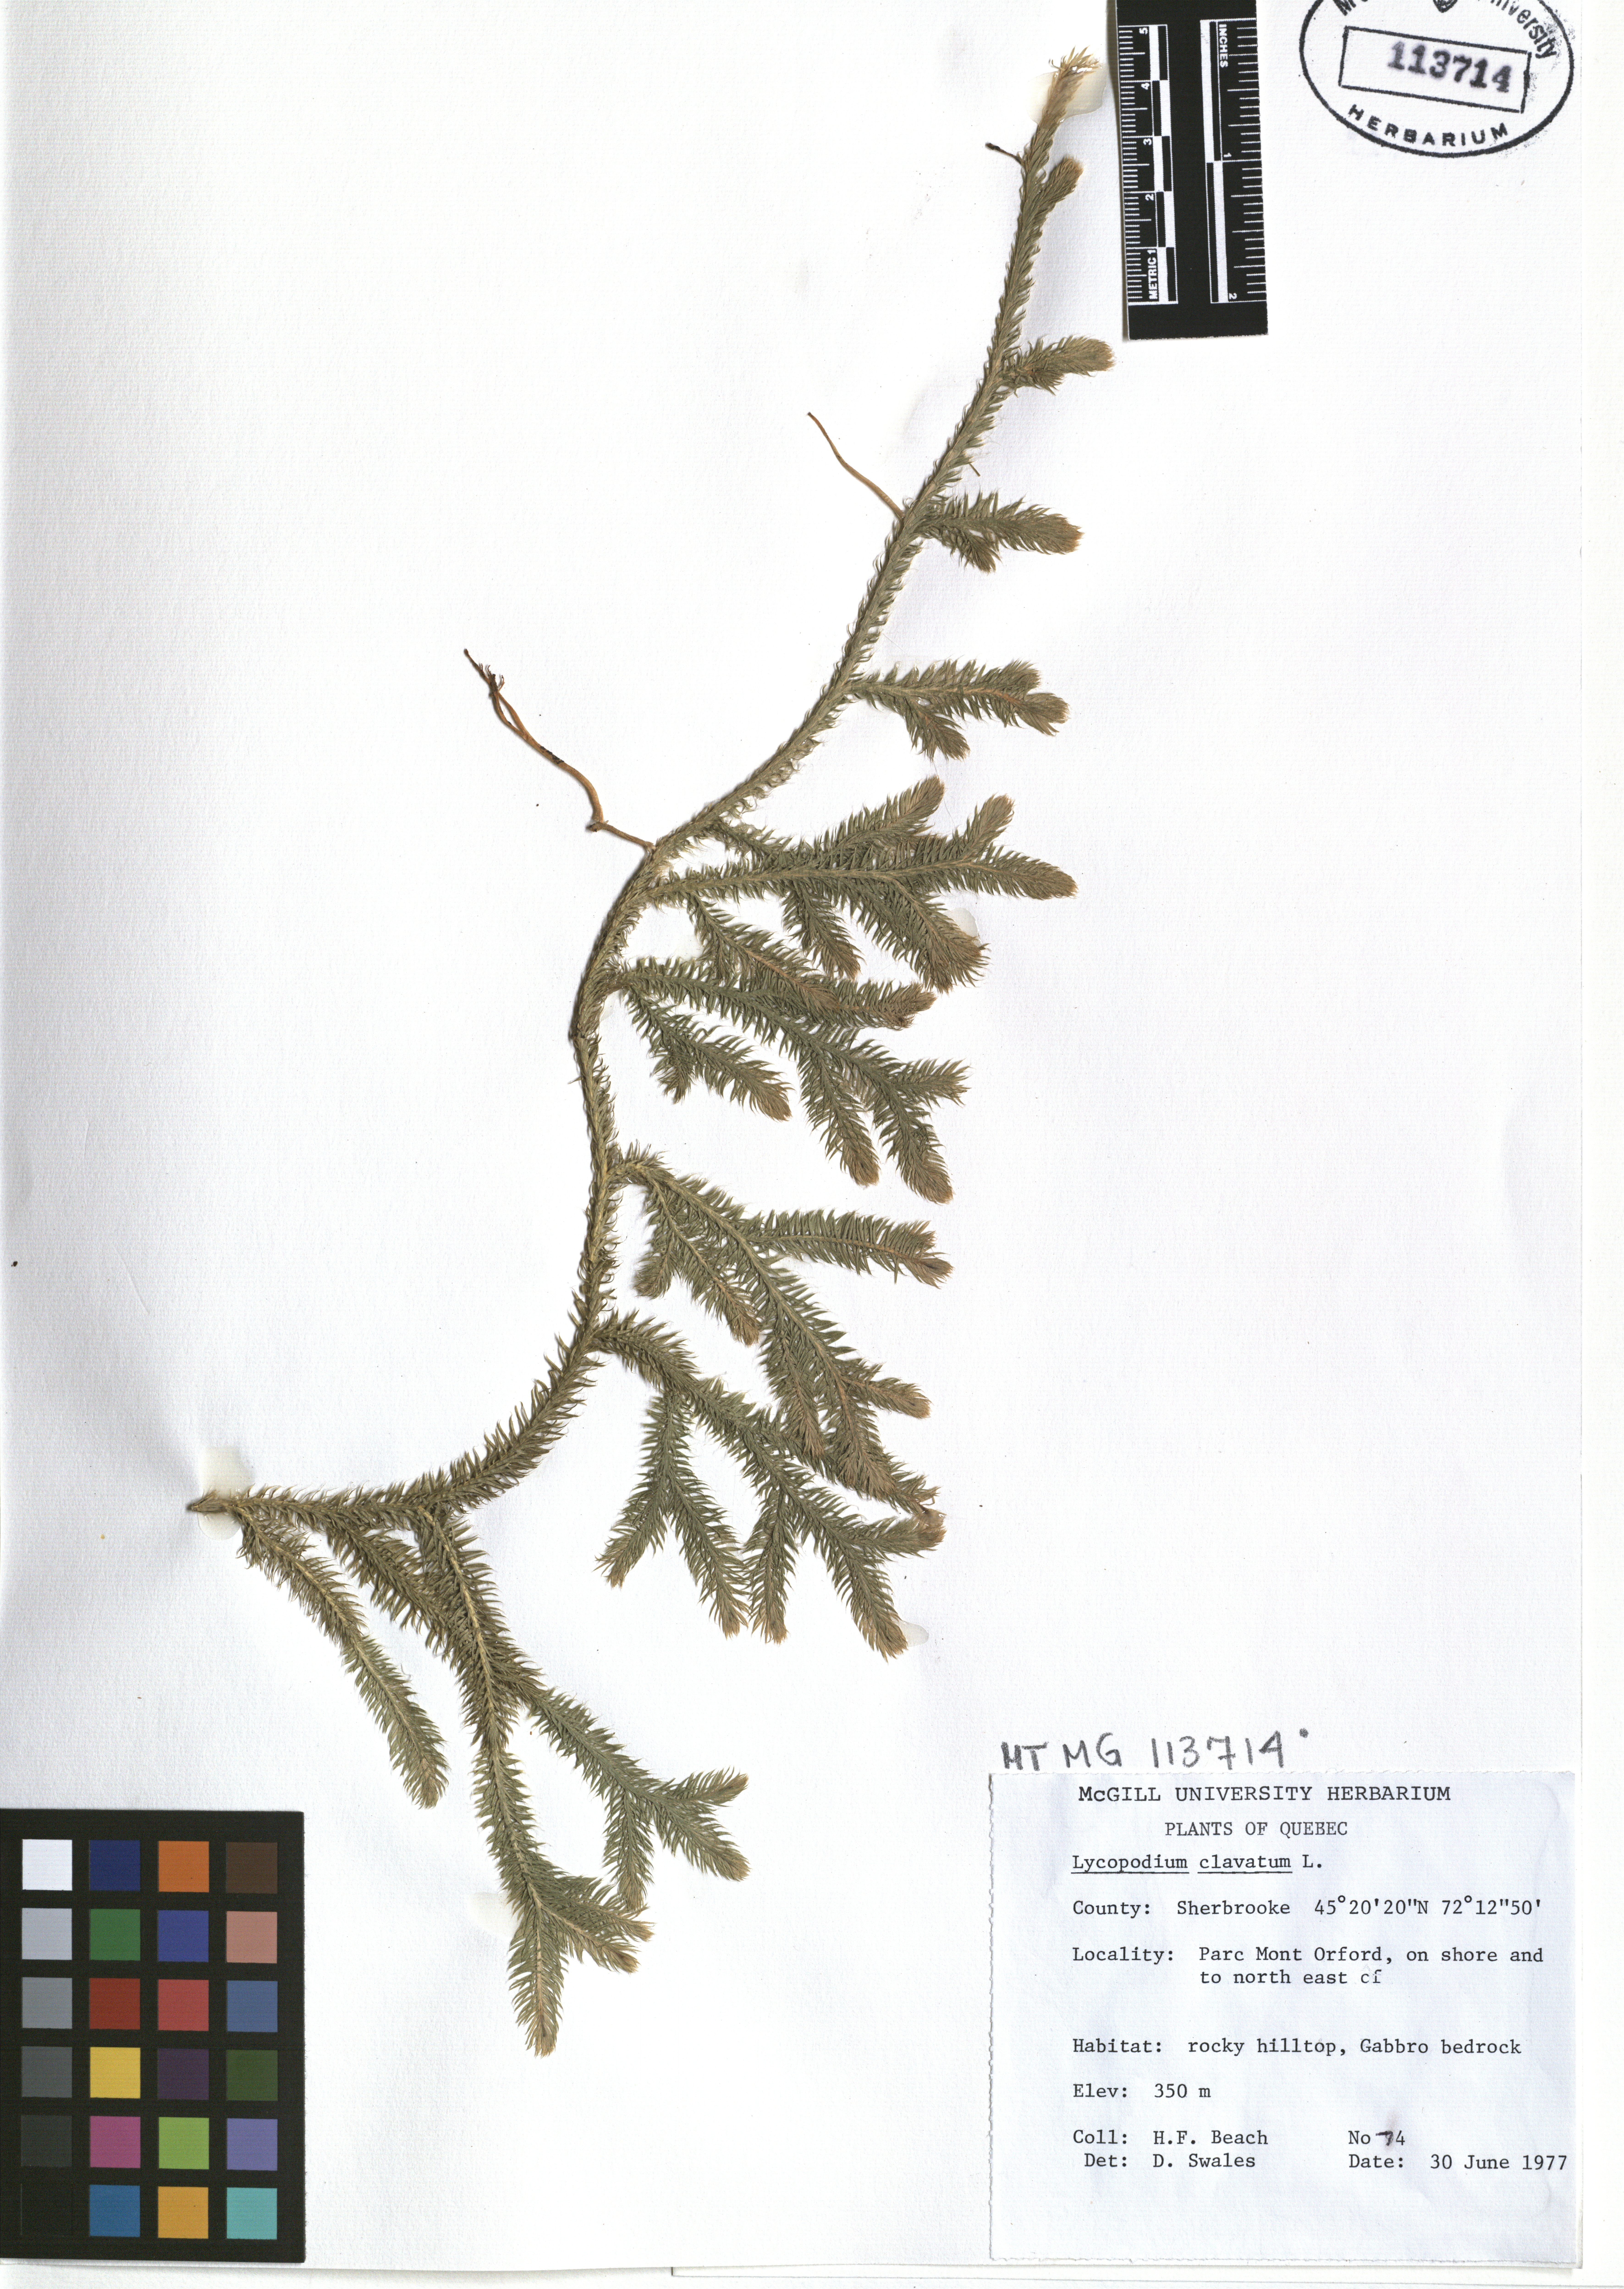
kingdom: Plantae
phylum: Tracheophyta
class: Lycopodiopsida
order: Lycopodiales
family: Lycopodiaceae
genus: Lycopodium
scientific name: Lycopodium clavatum
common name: Stag's-horn clubmoss
